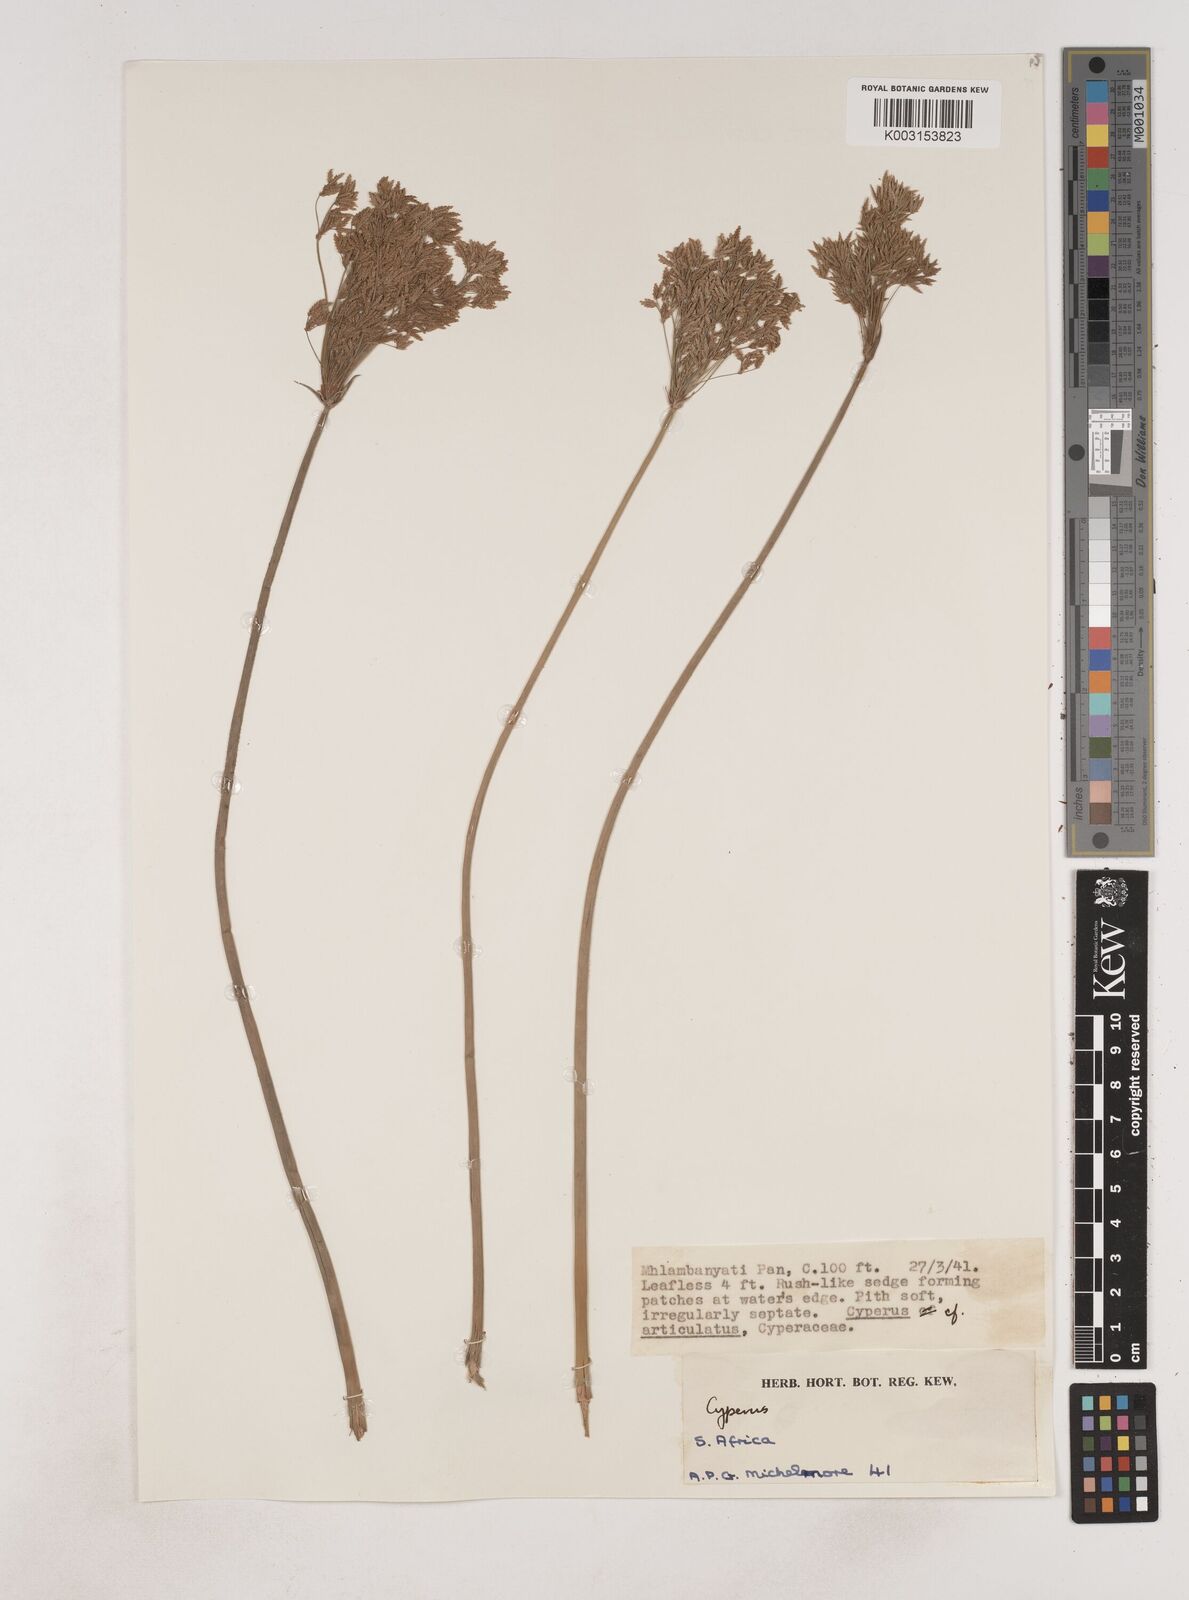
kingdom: Plantae
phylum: Tracheophyta
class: Liliopsida
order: Poales
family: Cyperaceae
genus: Cyperus
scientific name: Cyperus corymbosus
